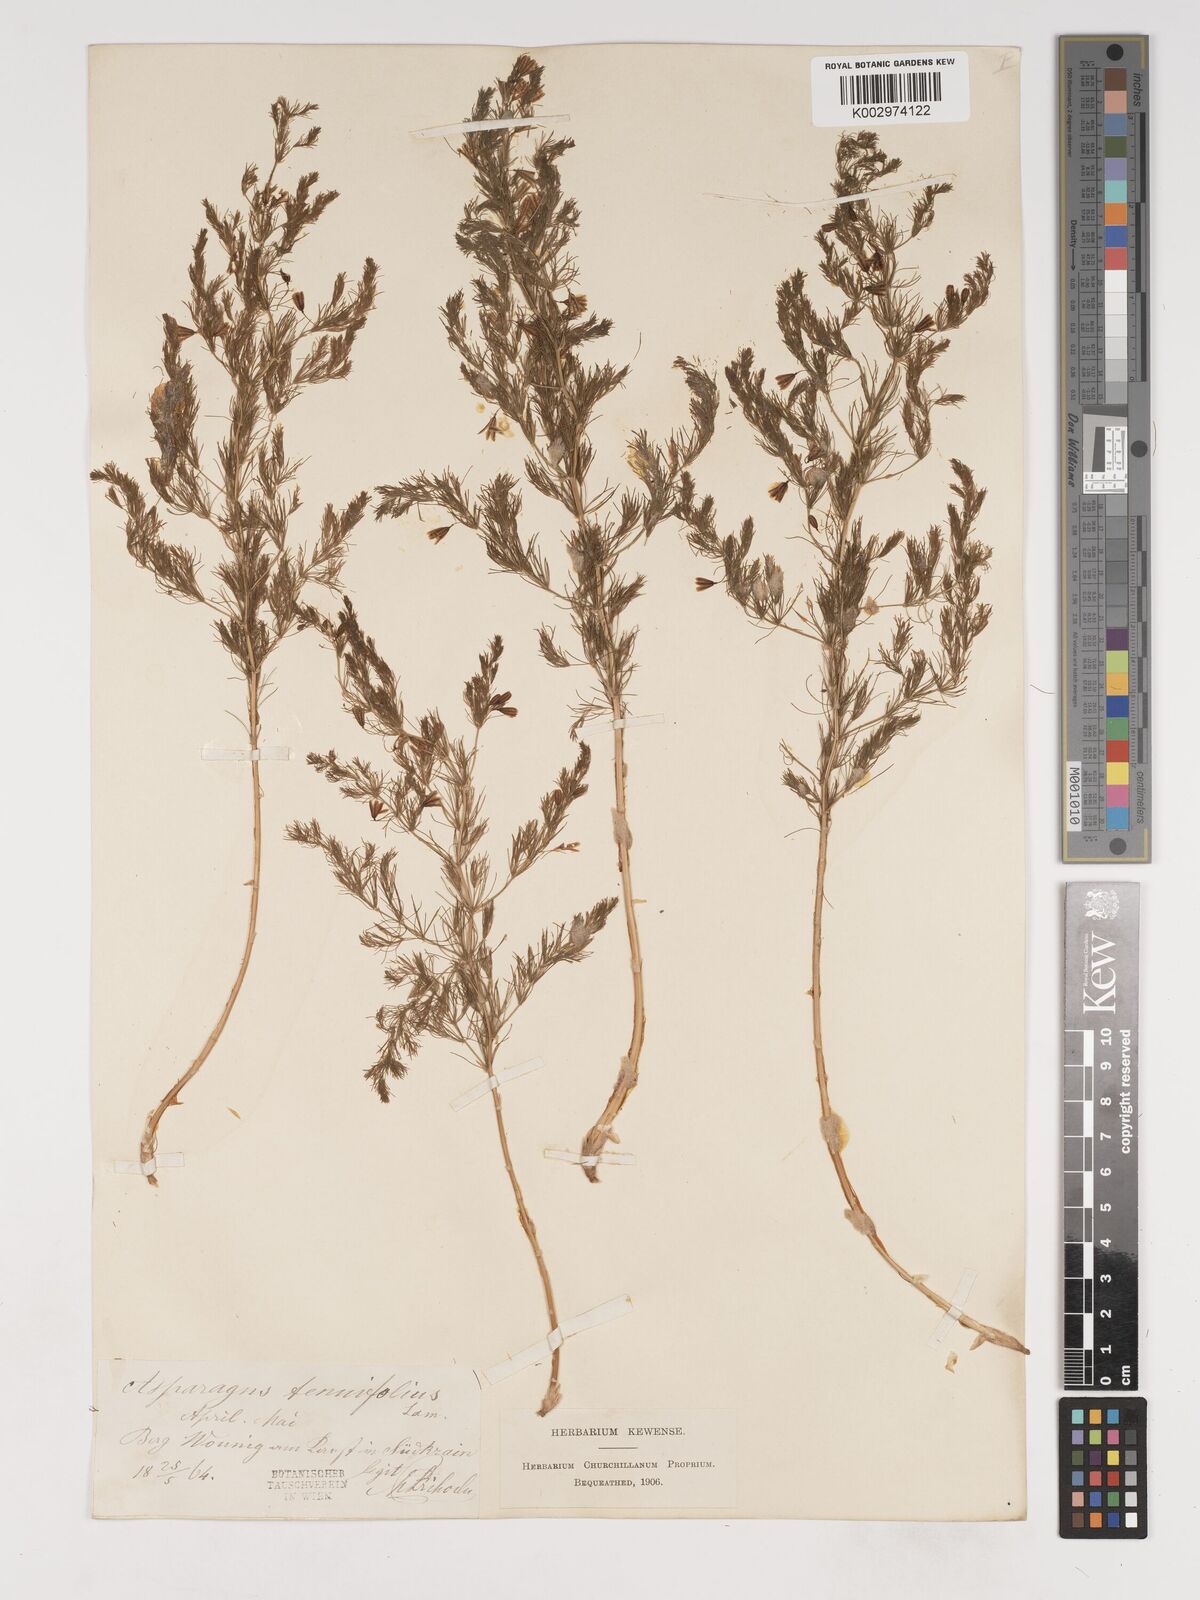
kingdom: Plantae
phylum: Tracheophyta
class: Liliopsida
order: Asparagales
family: Asparagaceae
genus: Asparagus
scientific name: Asparagus tenuifolius
